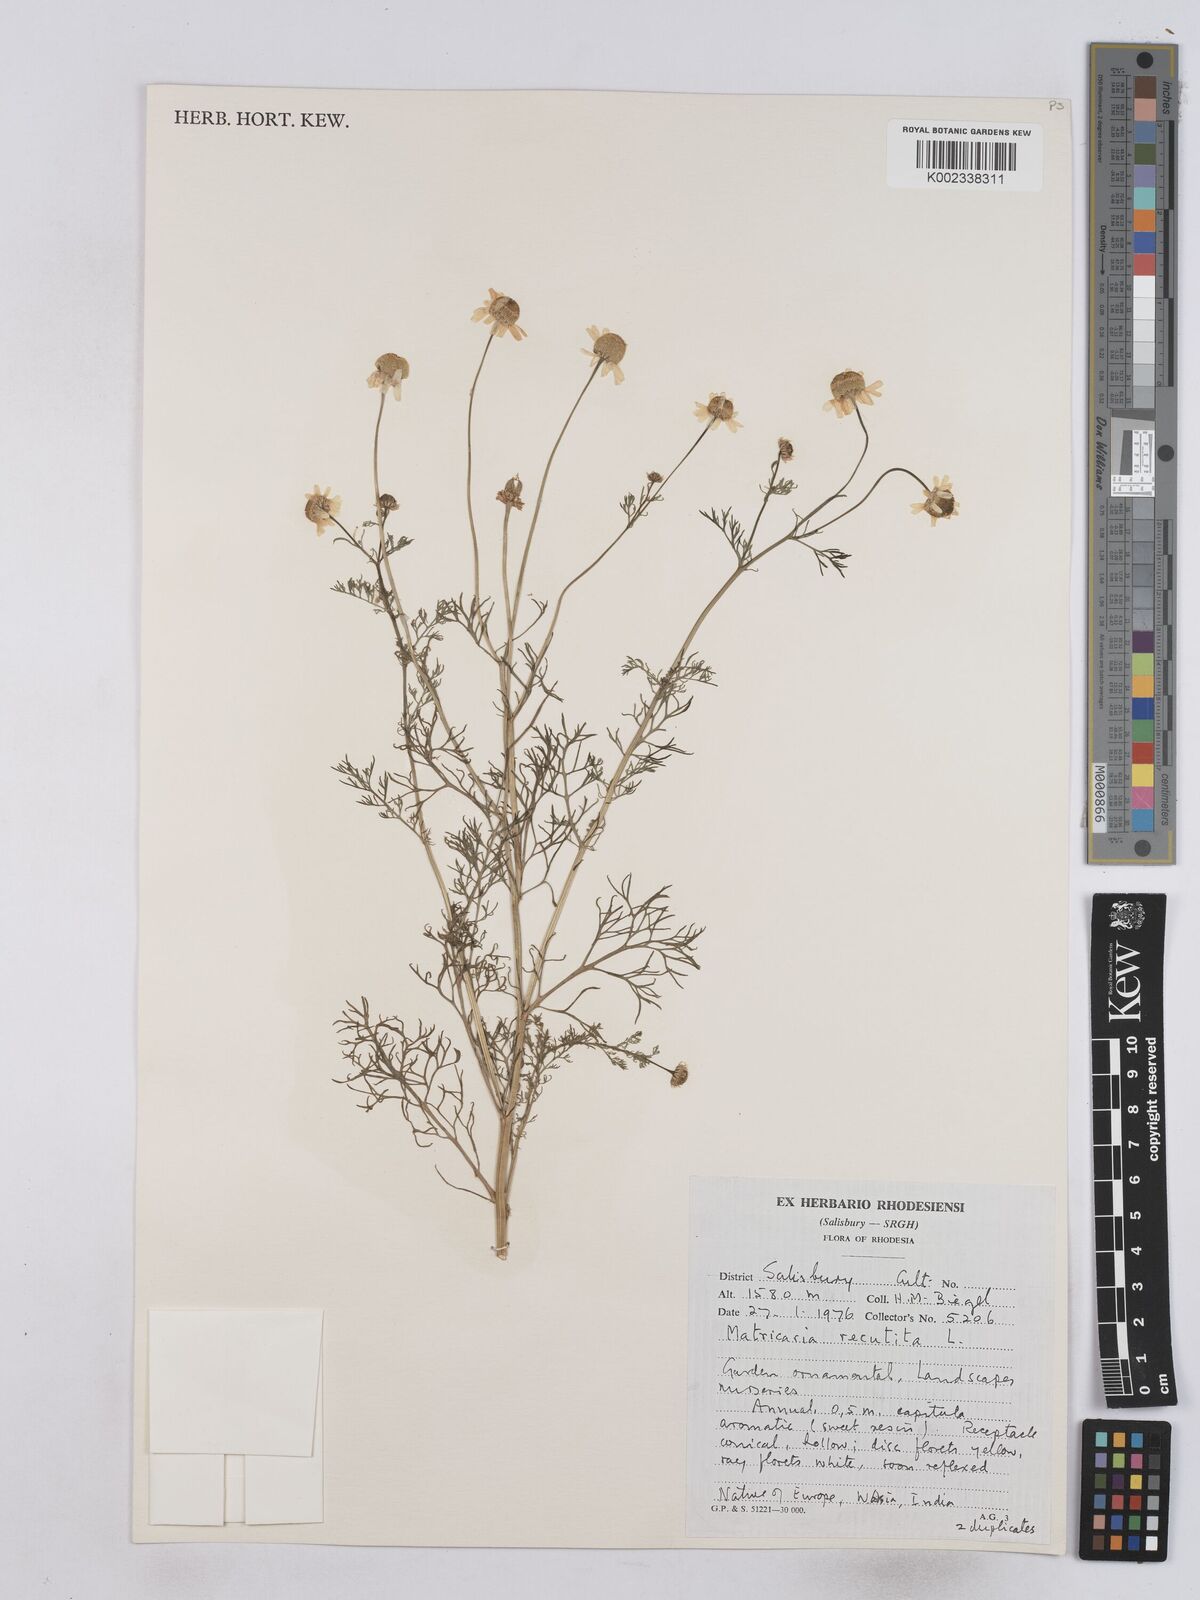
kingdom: Plantae
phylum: Tracheophyta
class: Magnoliopsida
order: Asterales
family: Asteraceae
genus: Matricaria
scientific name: Matricaria chamomilla
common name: Scented mayweed
